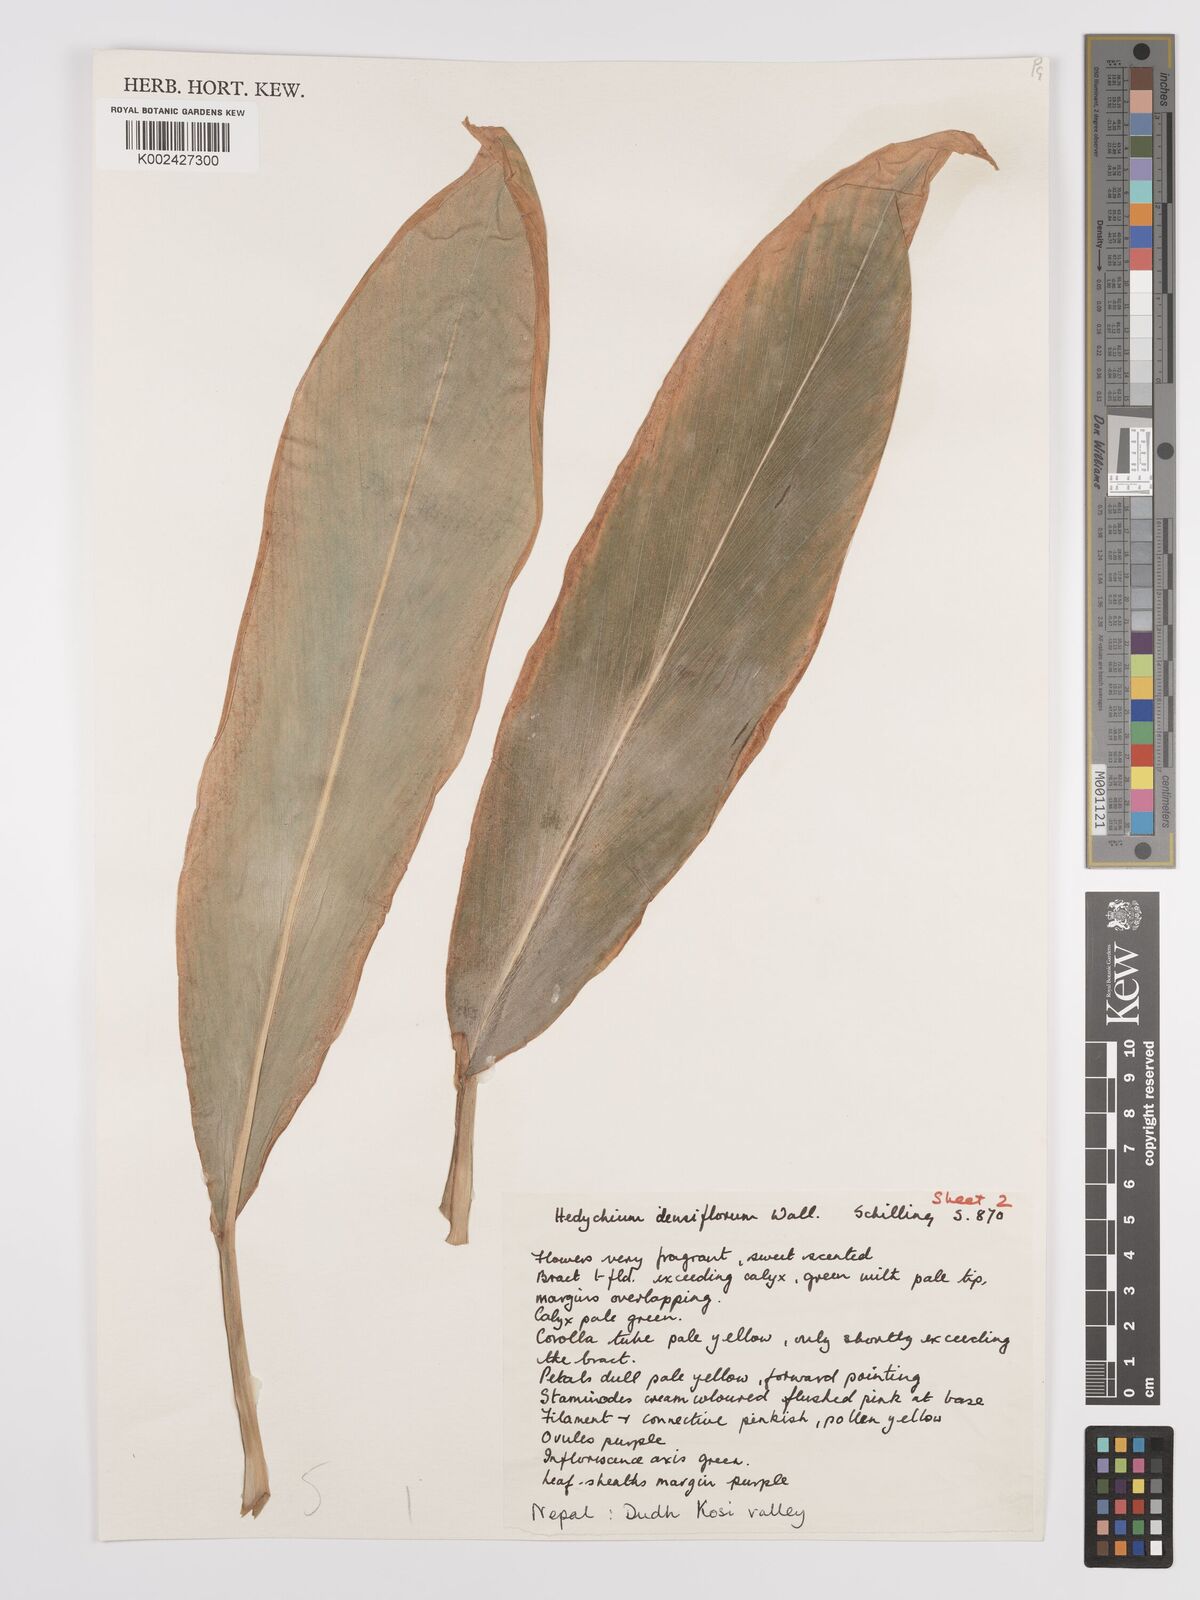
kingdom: Plantae
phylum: Tracheophyta
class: Liliopsida
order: Zingiberales
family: Zingiberaceae
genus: Hedychium
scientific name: Hedychium densiflorum
